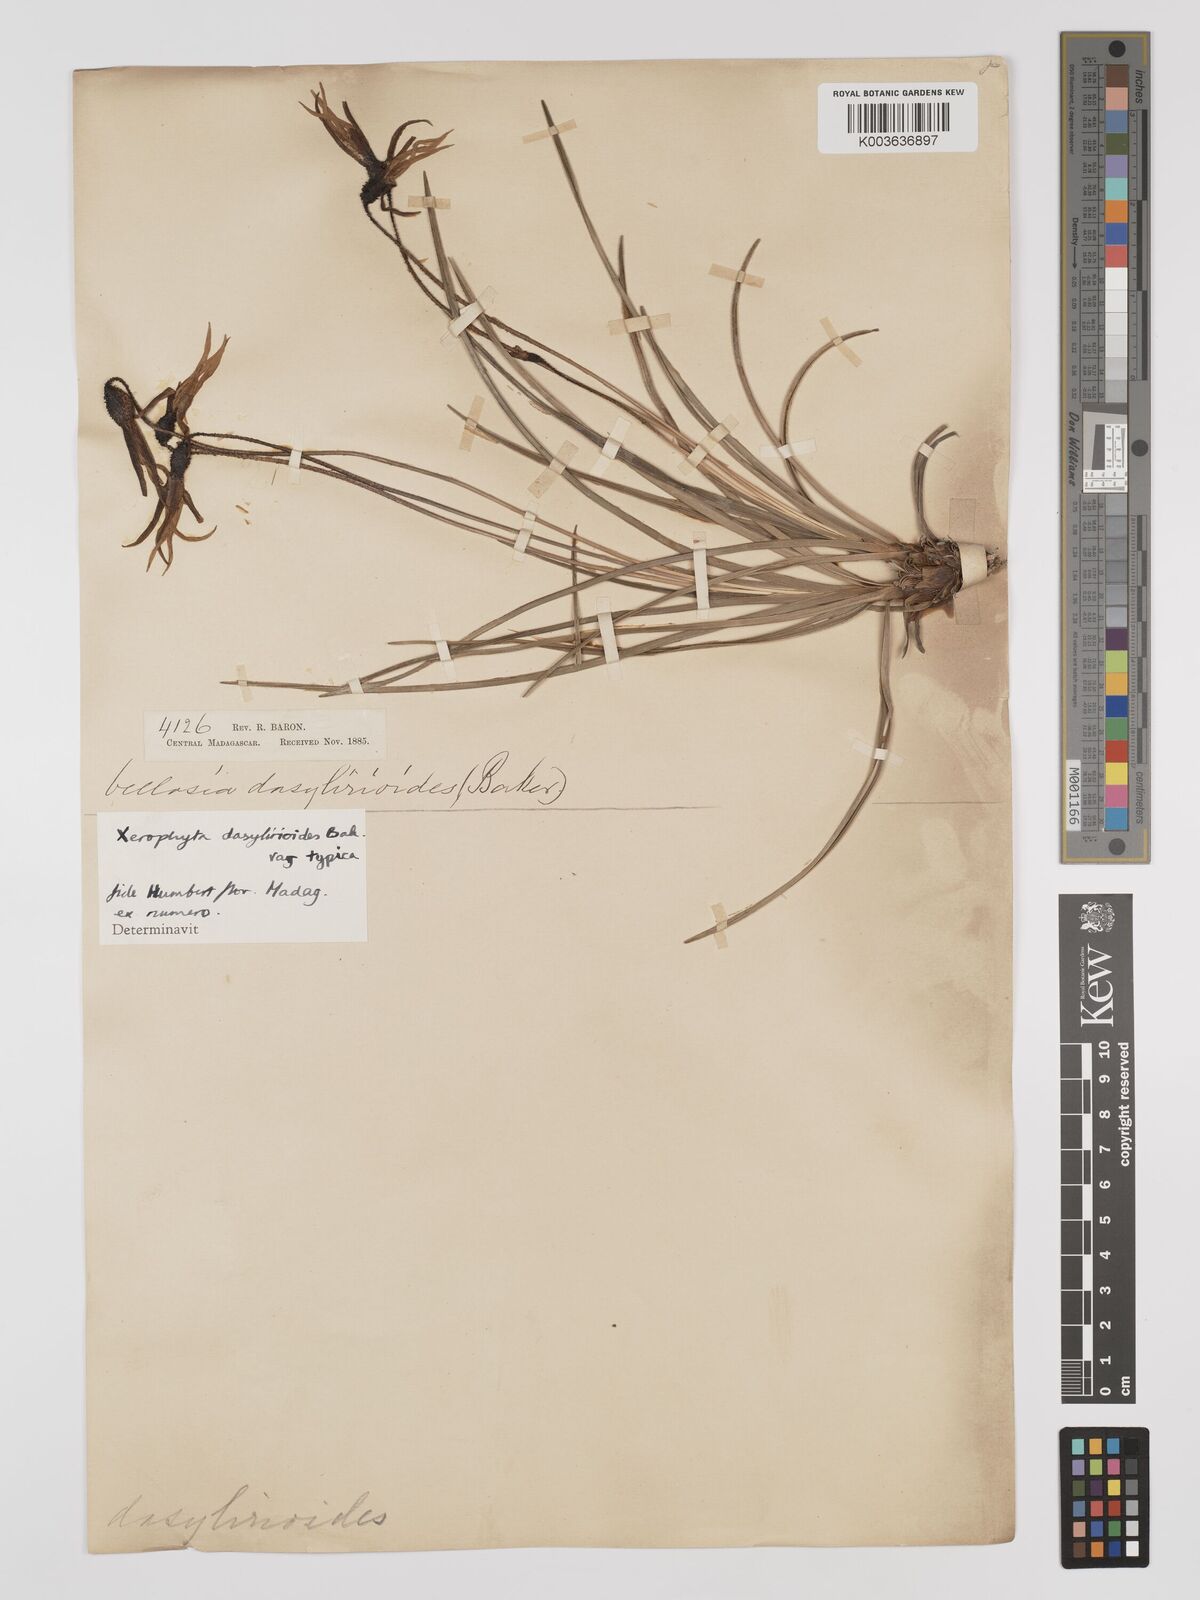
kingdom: Plantae
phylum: Tracheophyta
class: Liliopsida
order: Pandanales
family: Velloziaceae
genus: Xerophyta
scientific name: Xerophyta dasylirioides
